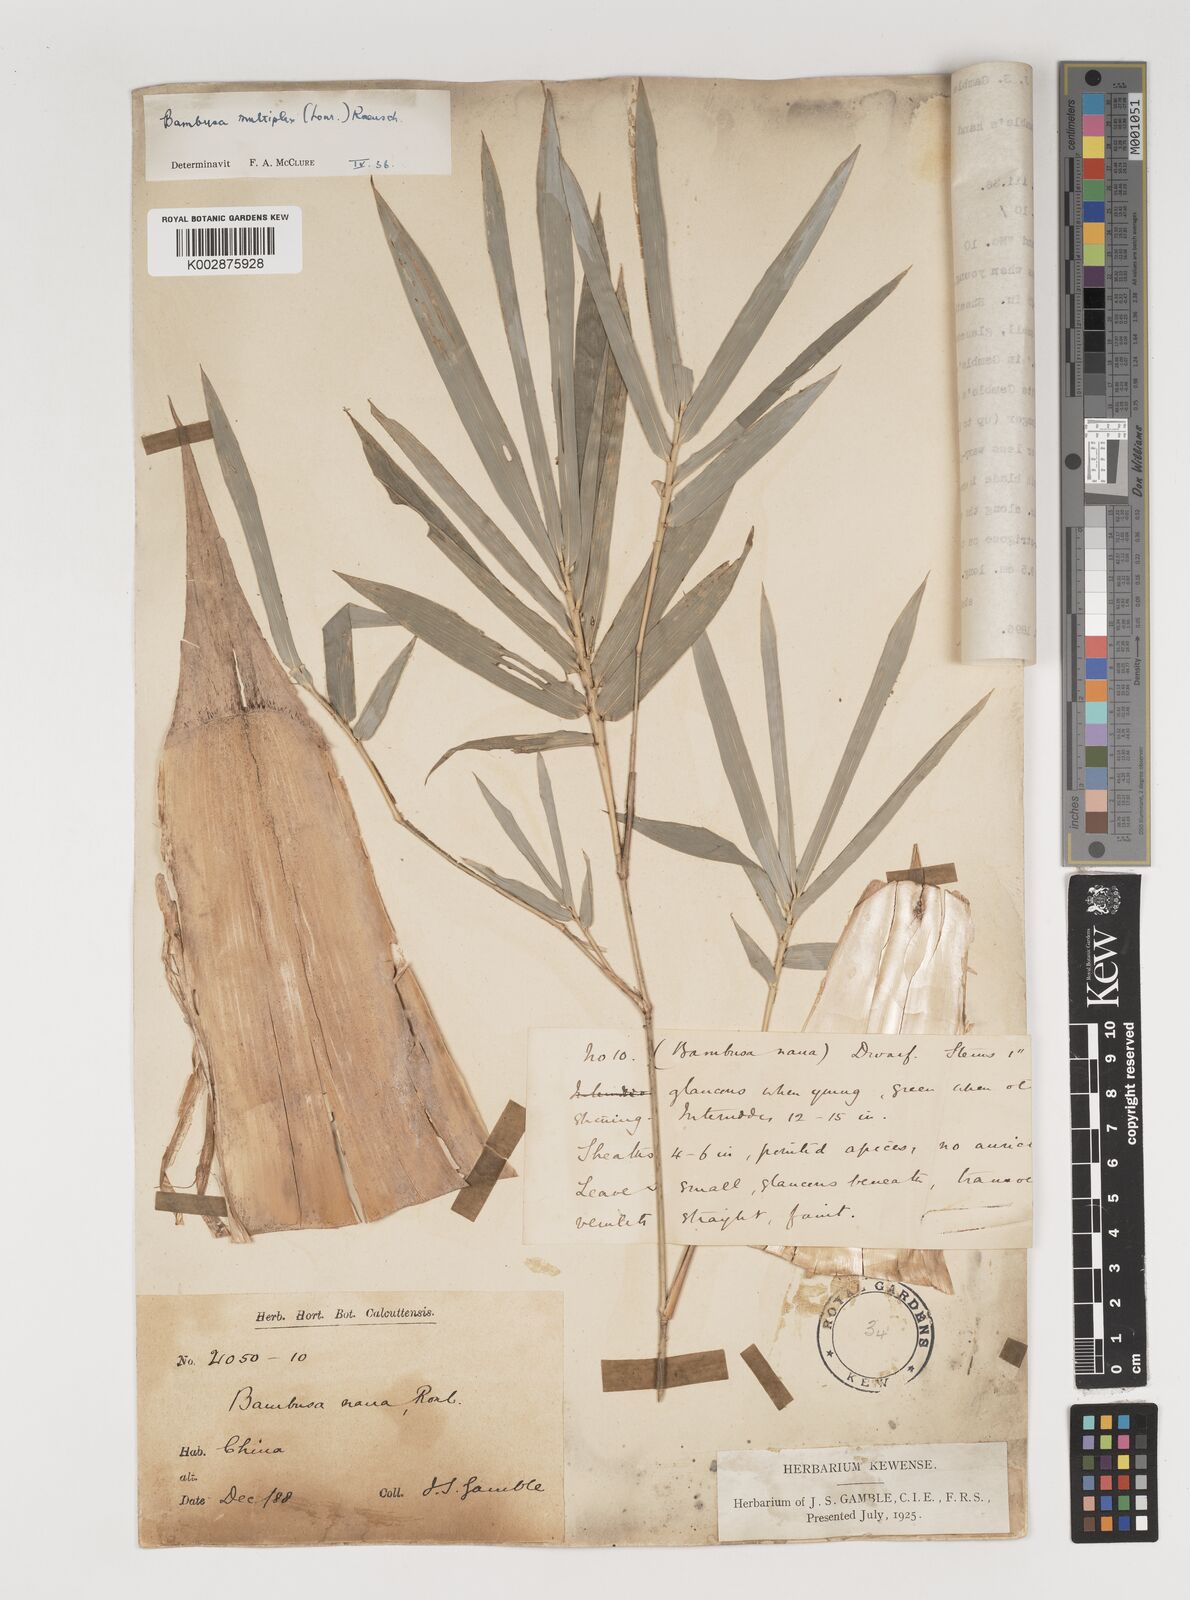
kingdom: Plantae
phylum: Tracheophyta
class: Liliopsida
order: Poales
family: Poaceae
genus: Bambusa
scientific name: Bambusa multiplex
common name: Hedge bamboo
